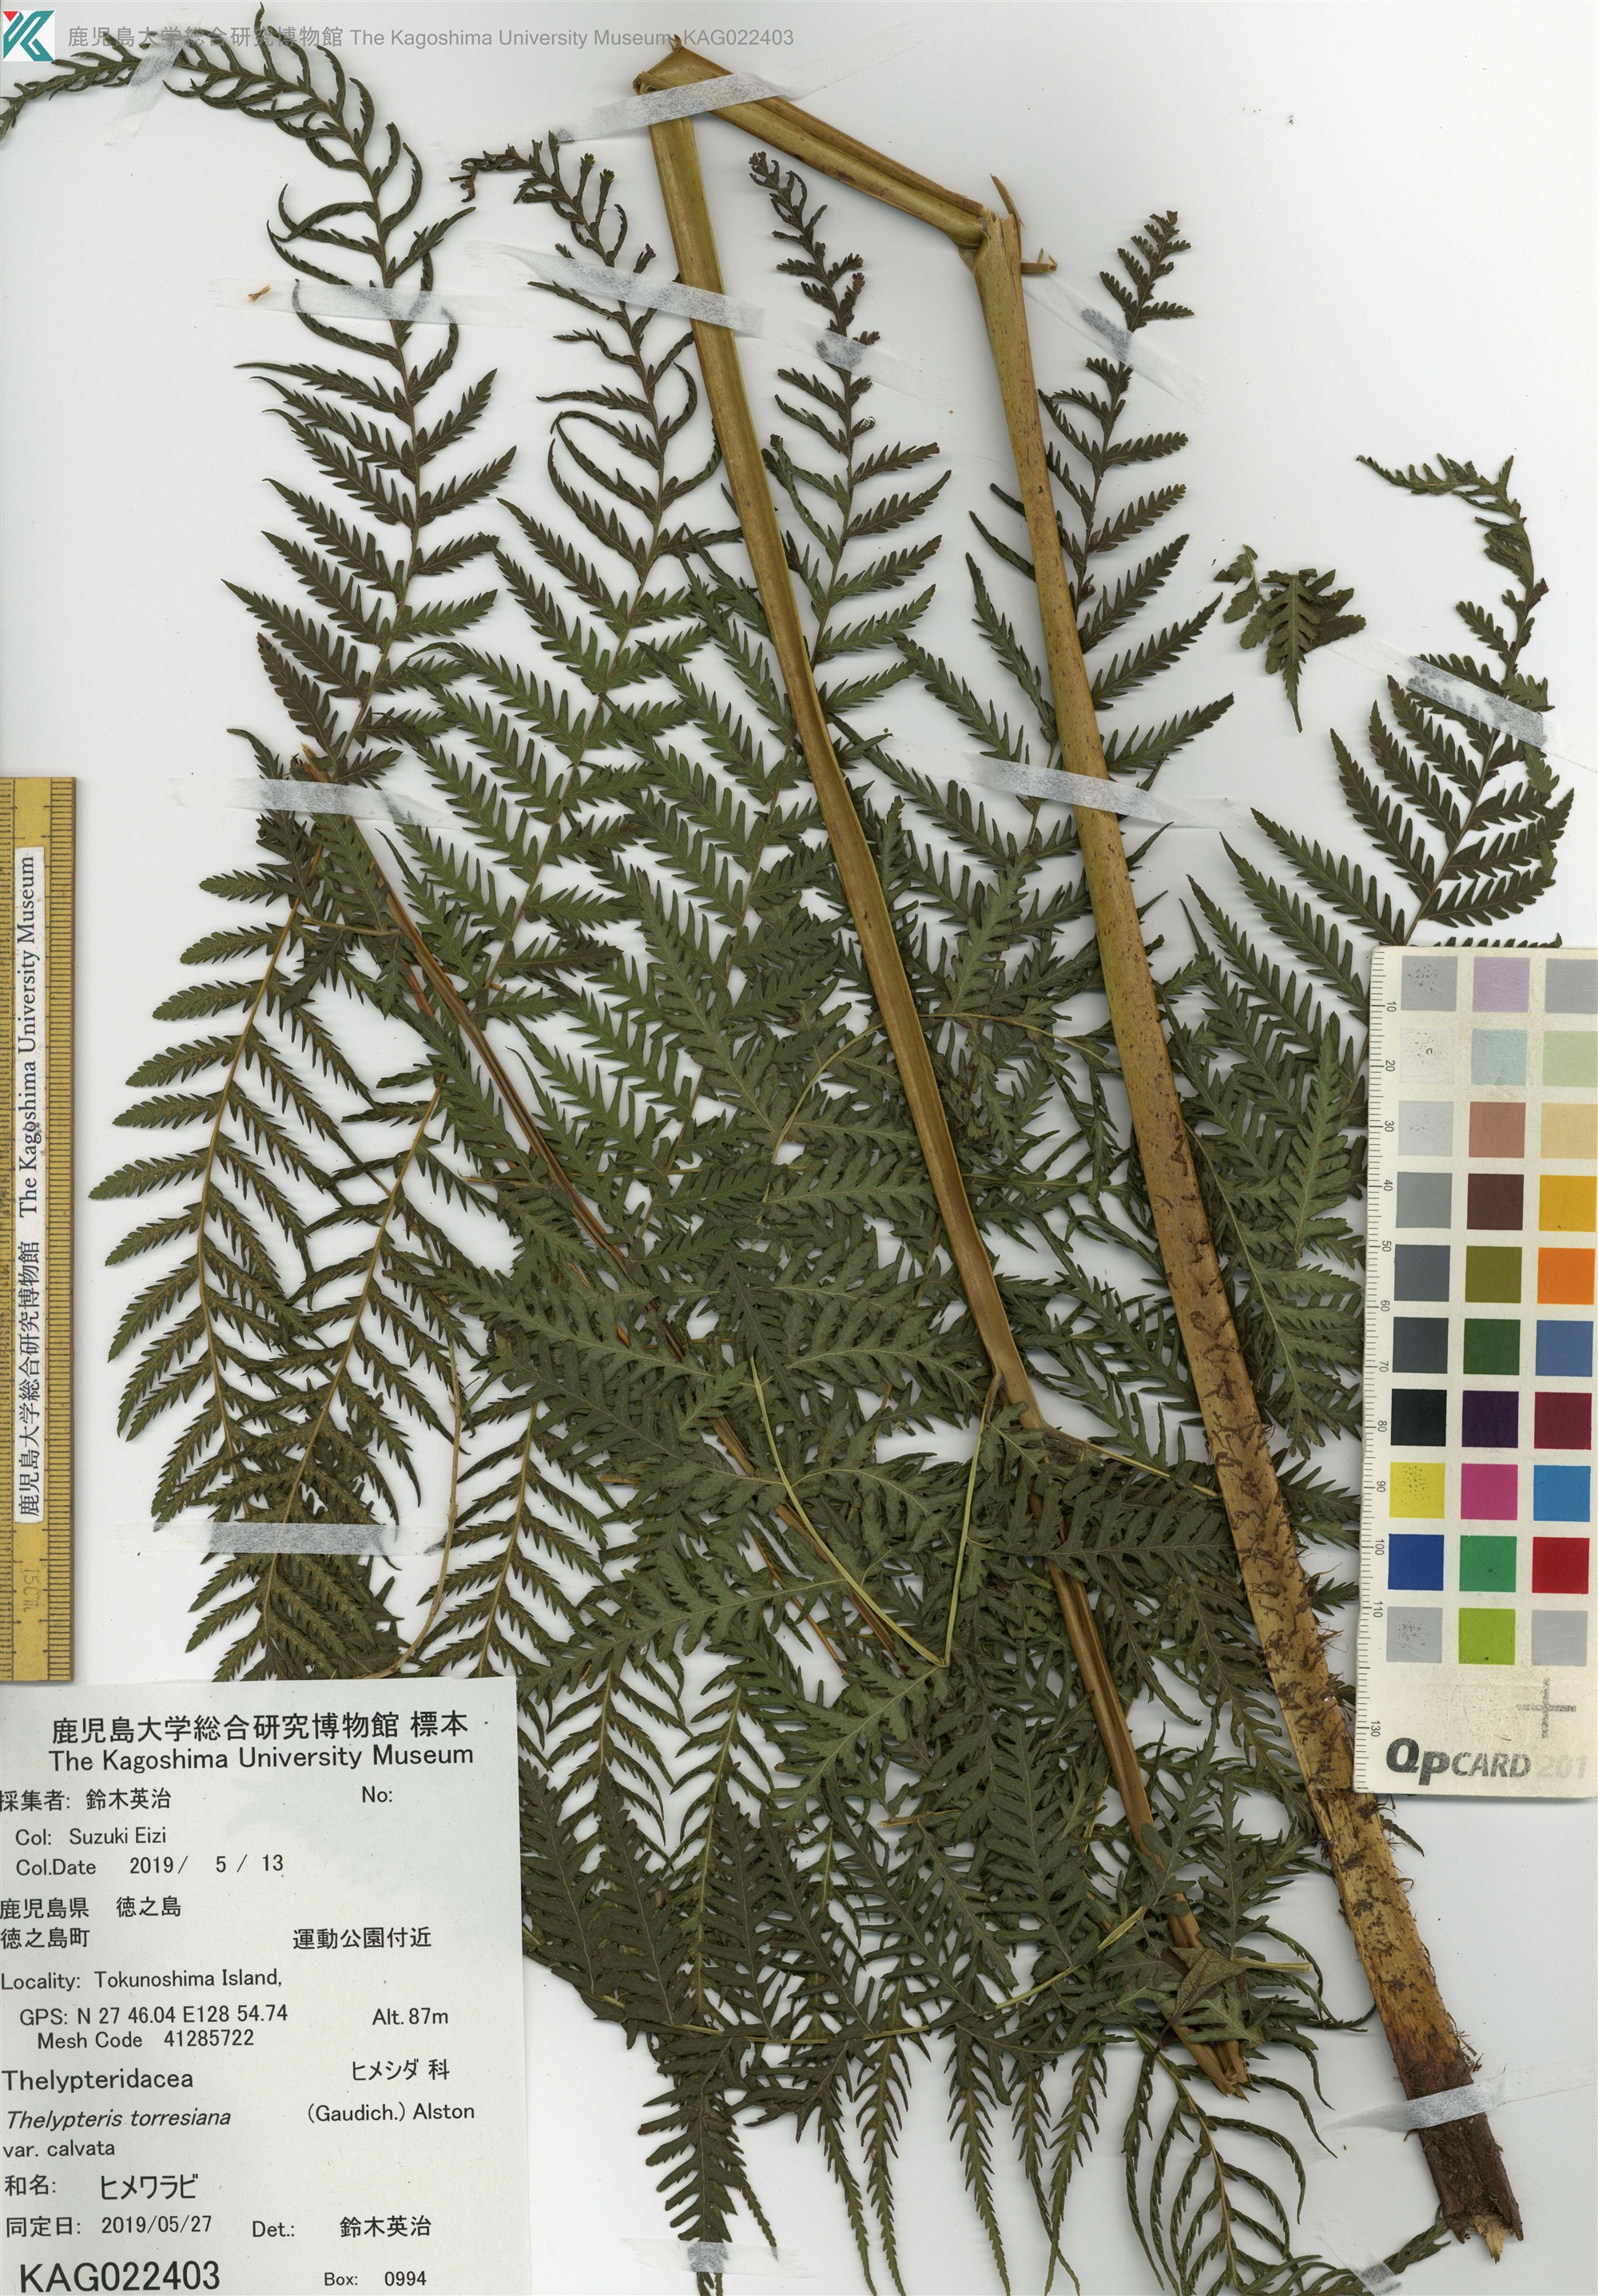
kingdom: Plantae
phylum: Tracheophyta
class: Polypodiopsida
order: Polypodiales
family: Thelypteridaceae
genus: Macrothelypteris
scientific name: Macrothelypteris oligophlebia
